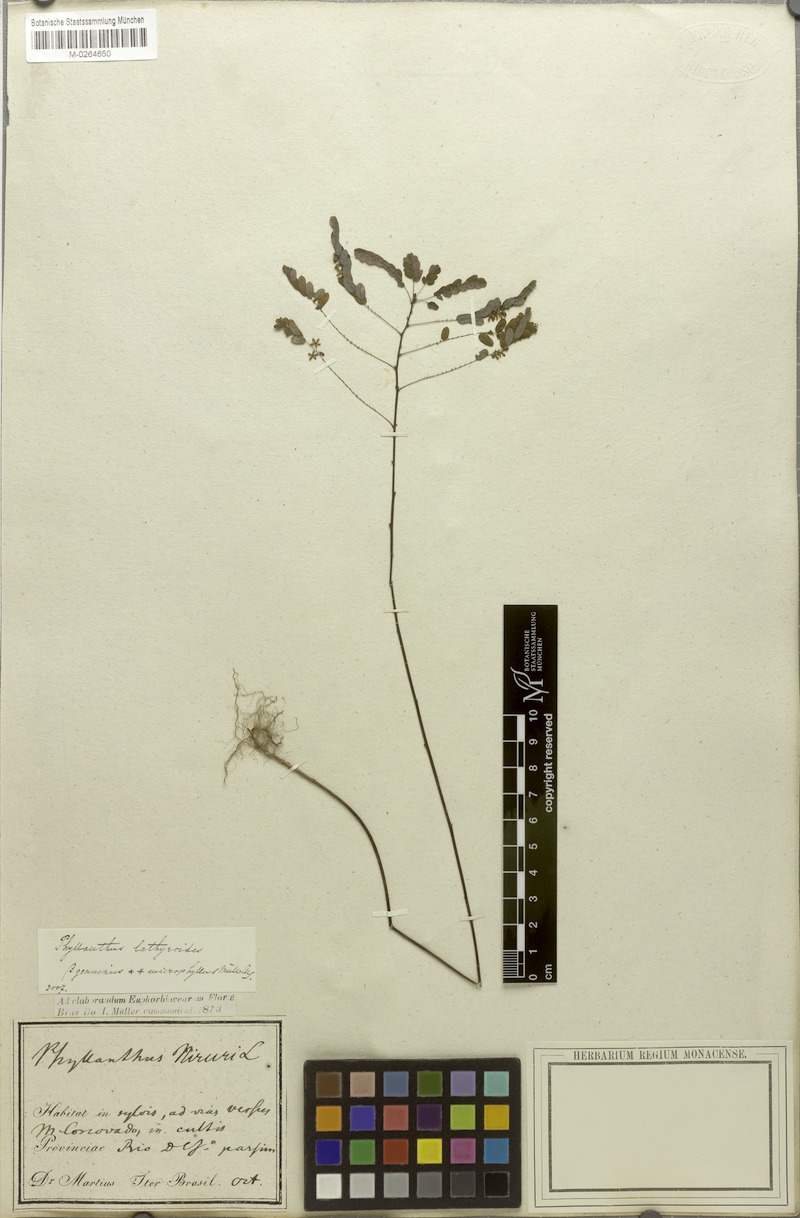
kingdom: Plantae
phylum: Tracheophyta
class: Magnoliopsida
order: Malpighiales
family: Phyllanthaceae
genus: Phyllanthus
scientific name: Phyllanthus niruri
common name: Niruri
